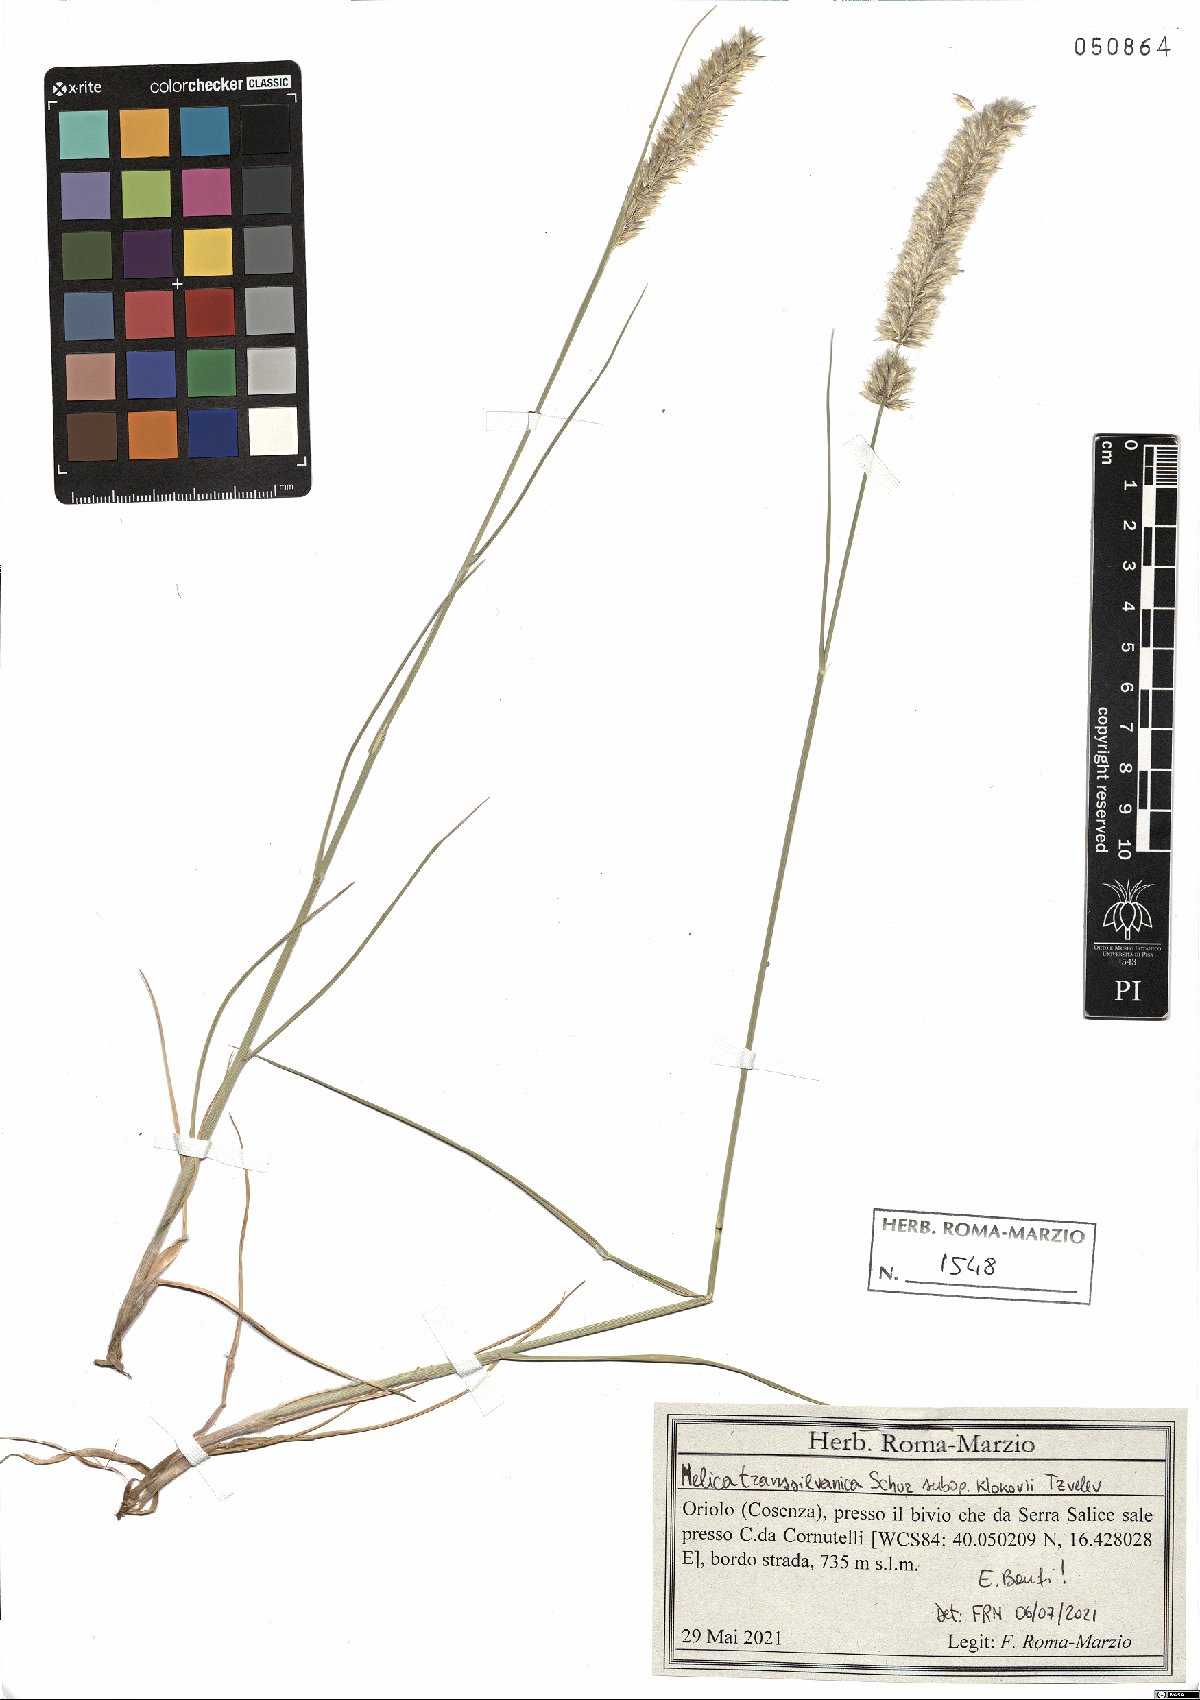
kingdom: Plantae
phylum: Tracheophyta
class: Liliopsida
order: Poales
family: Poaceae
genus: Melica
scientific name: Melica transsilvanica
